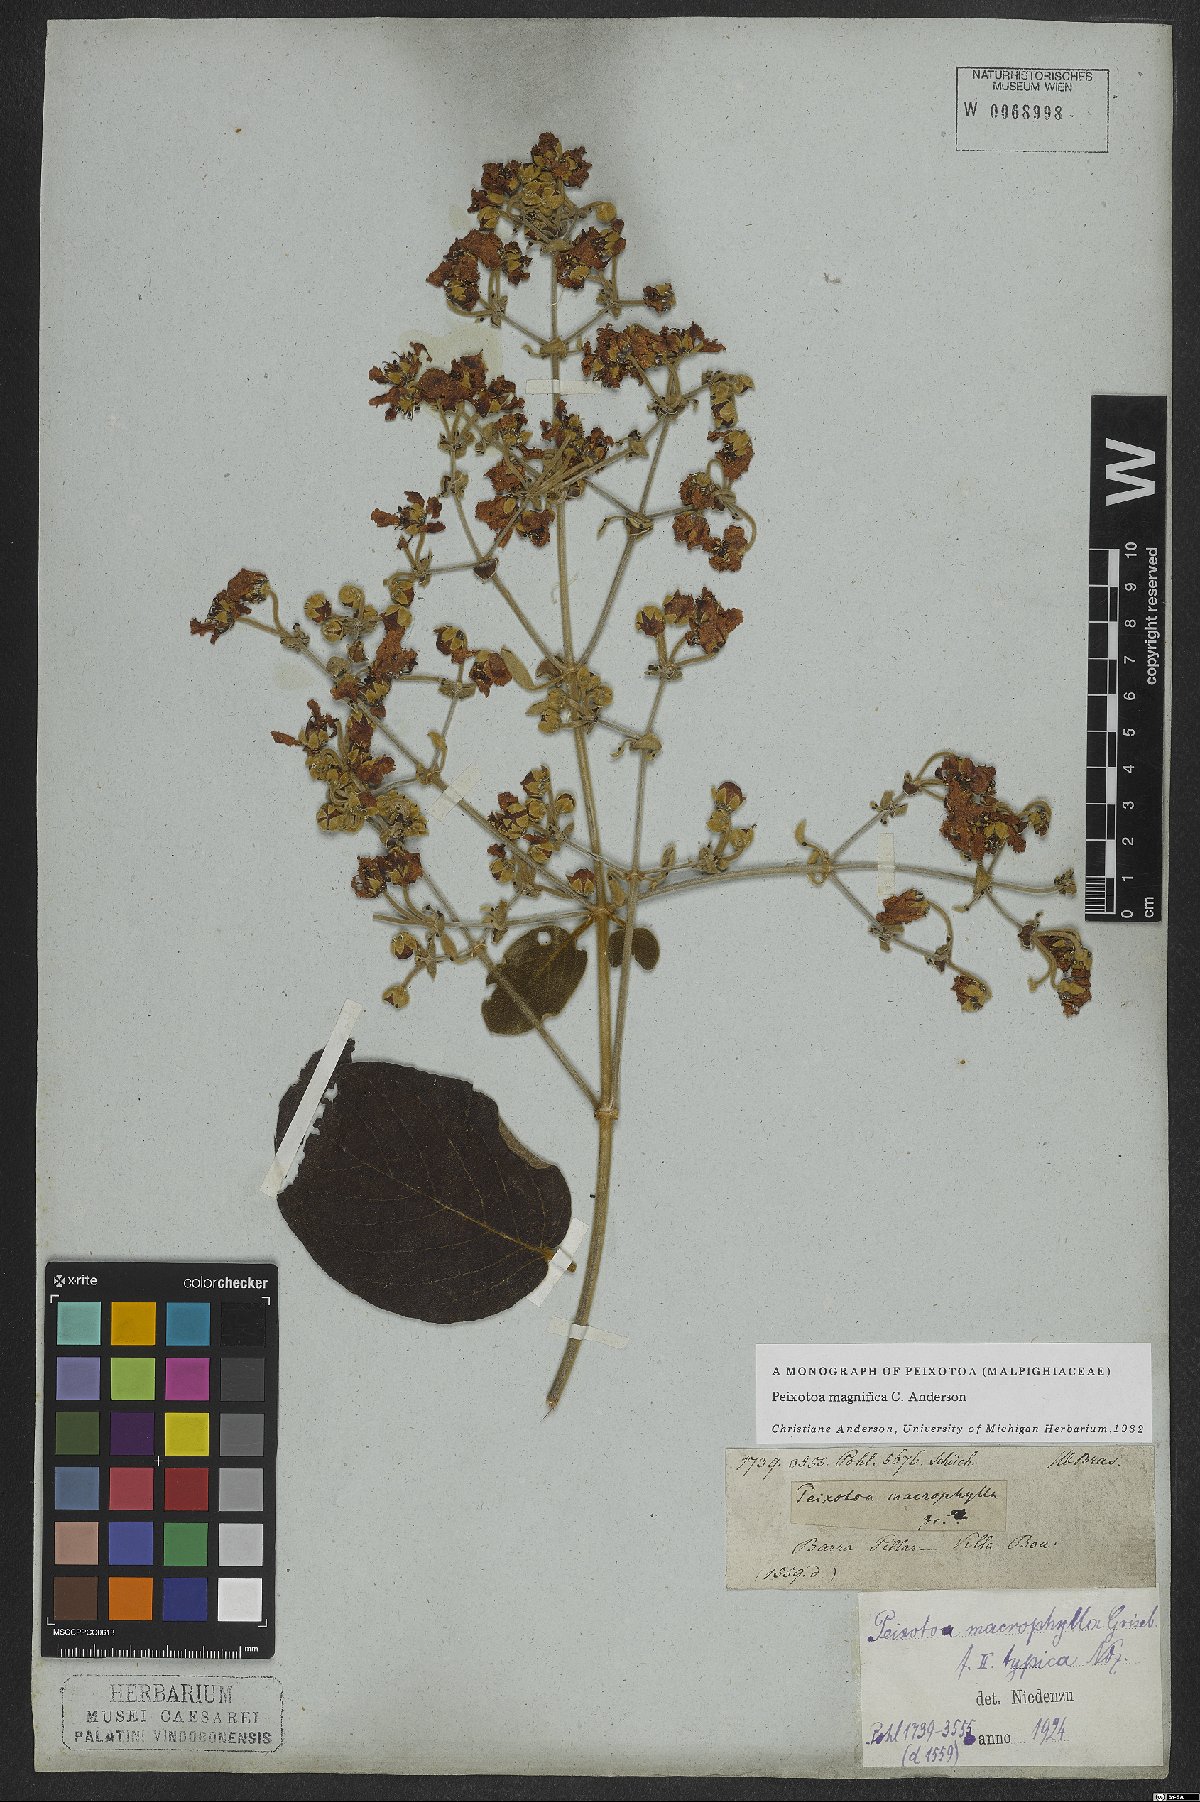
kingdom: Plantae
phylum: Tracheophyta
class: Magnoliopsida
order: Malpighiales
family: Malpighiaceae
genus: Peixotoa
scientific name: Peixotoa magnifica
